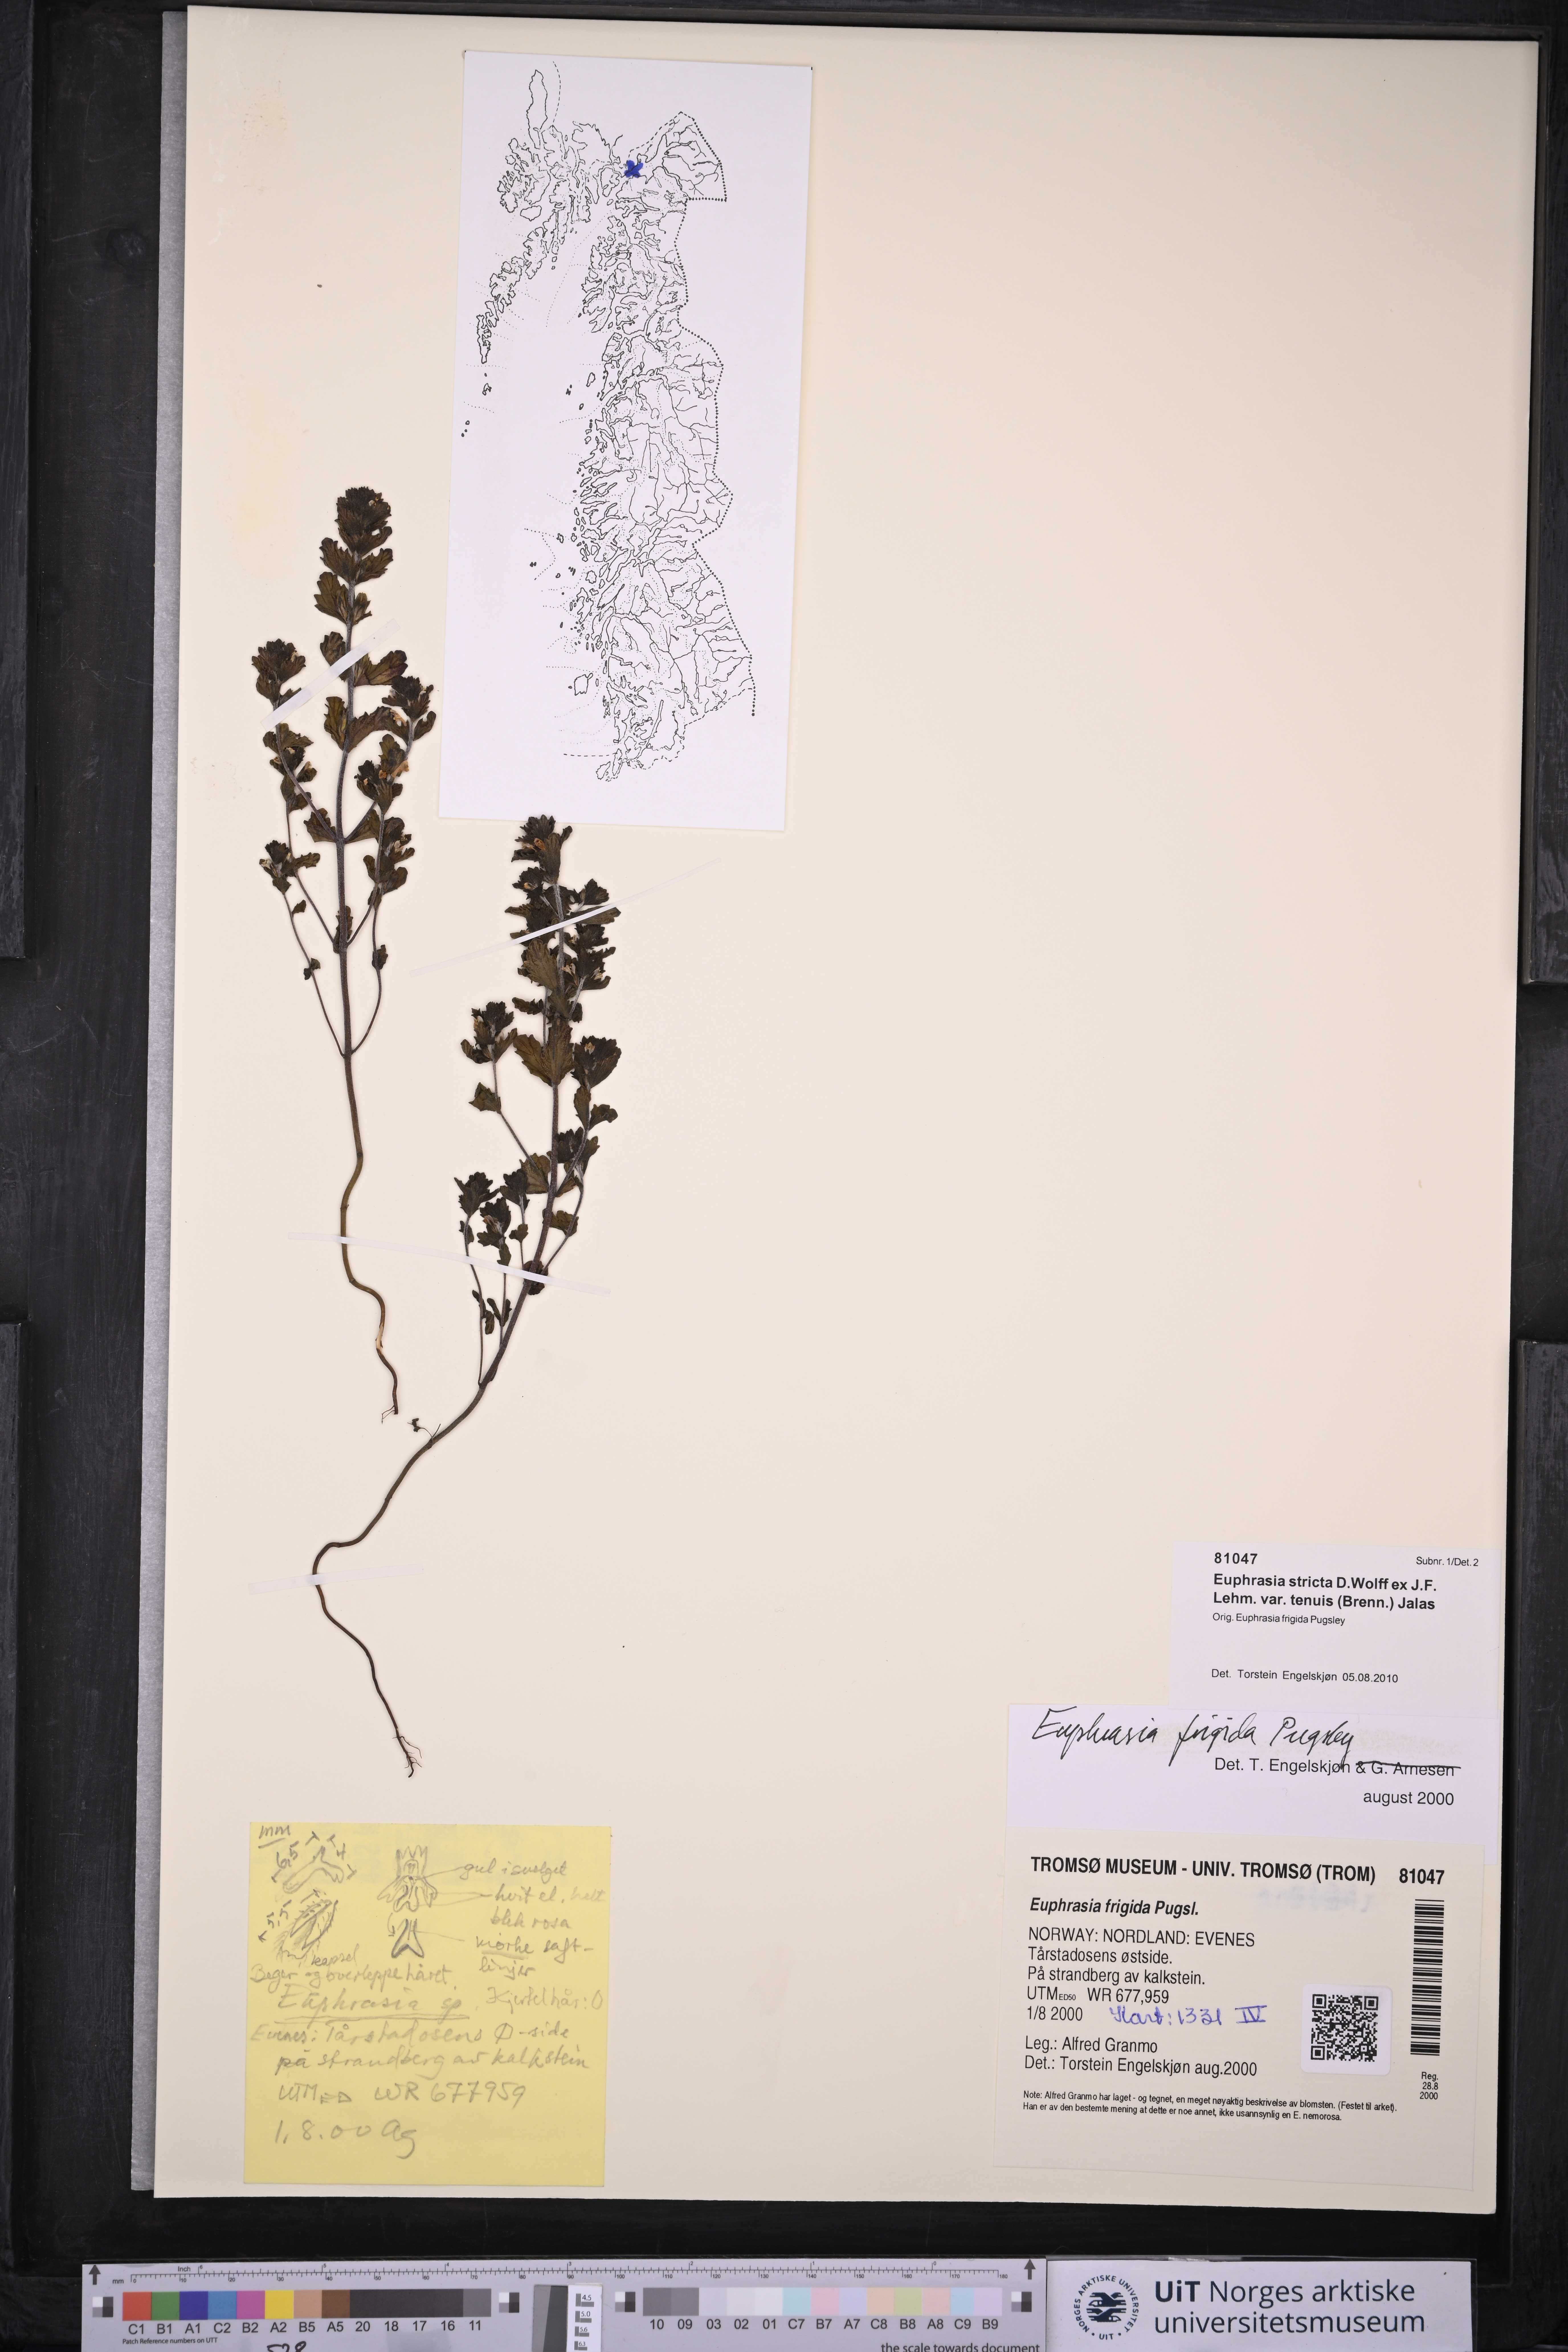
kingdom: Plantae
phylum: Tracheophyta
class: Magnoliopsida
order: Lamiales
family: Orobanchaceae
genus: Euphrasia
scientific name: Euphrasia vernalis
